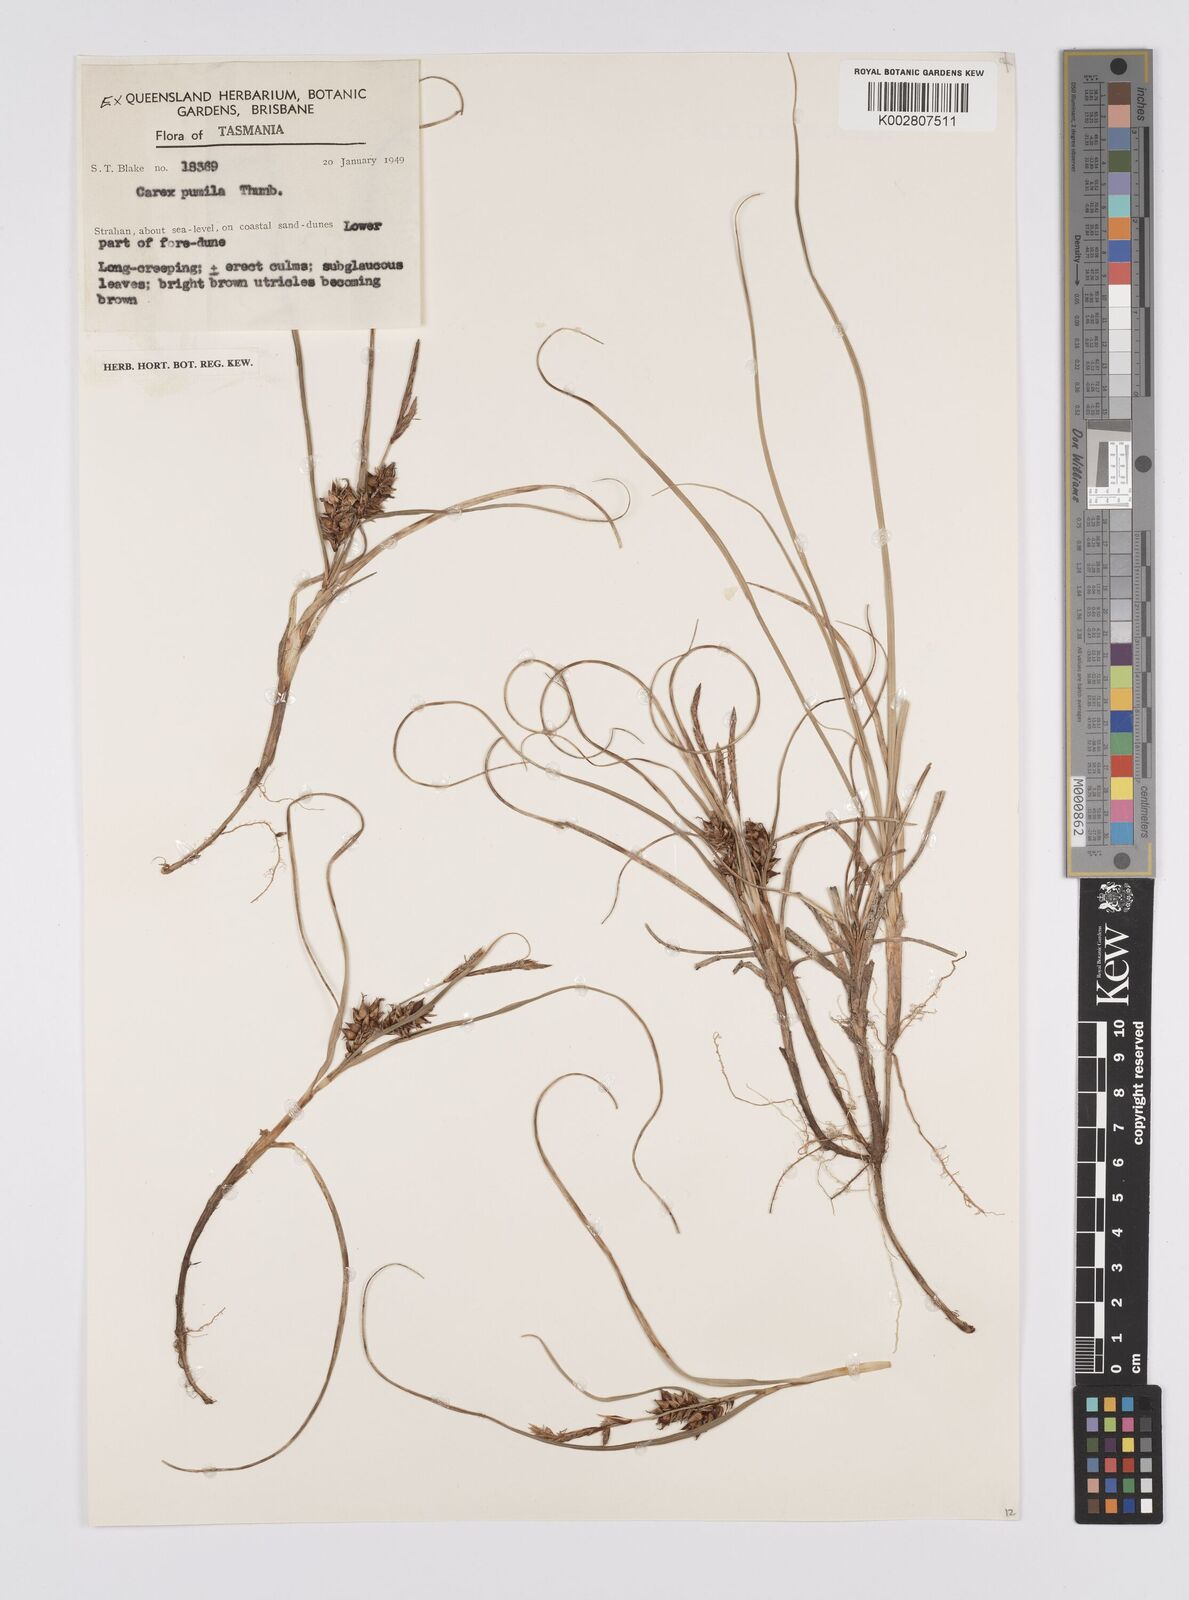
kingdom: Plantae
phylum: Tracheophyta
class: Liliopsida
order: Poales
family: Cyperaceae
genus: Carex
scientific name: Carex pumila
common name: Dwarf sedge
